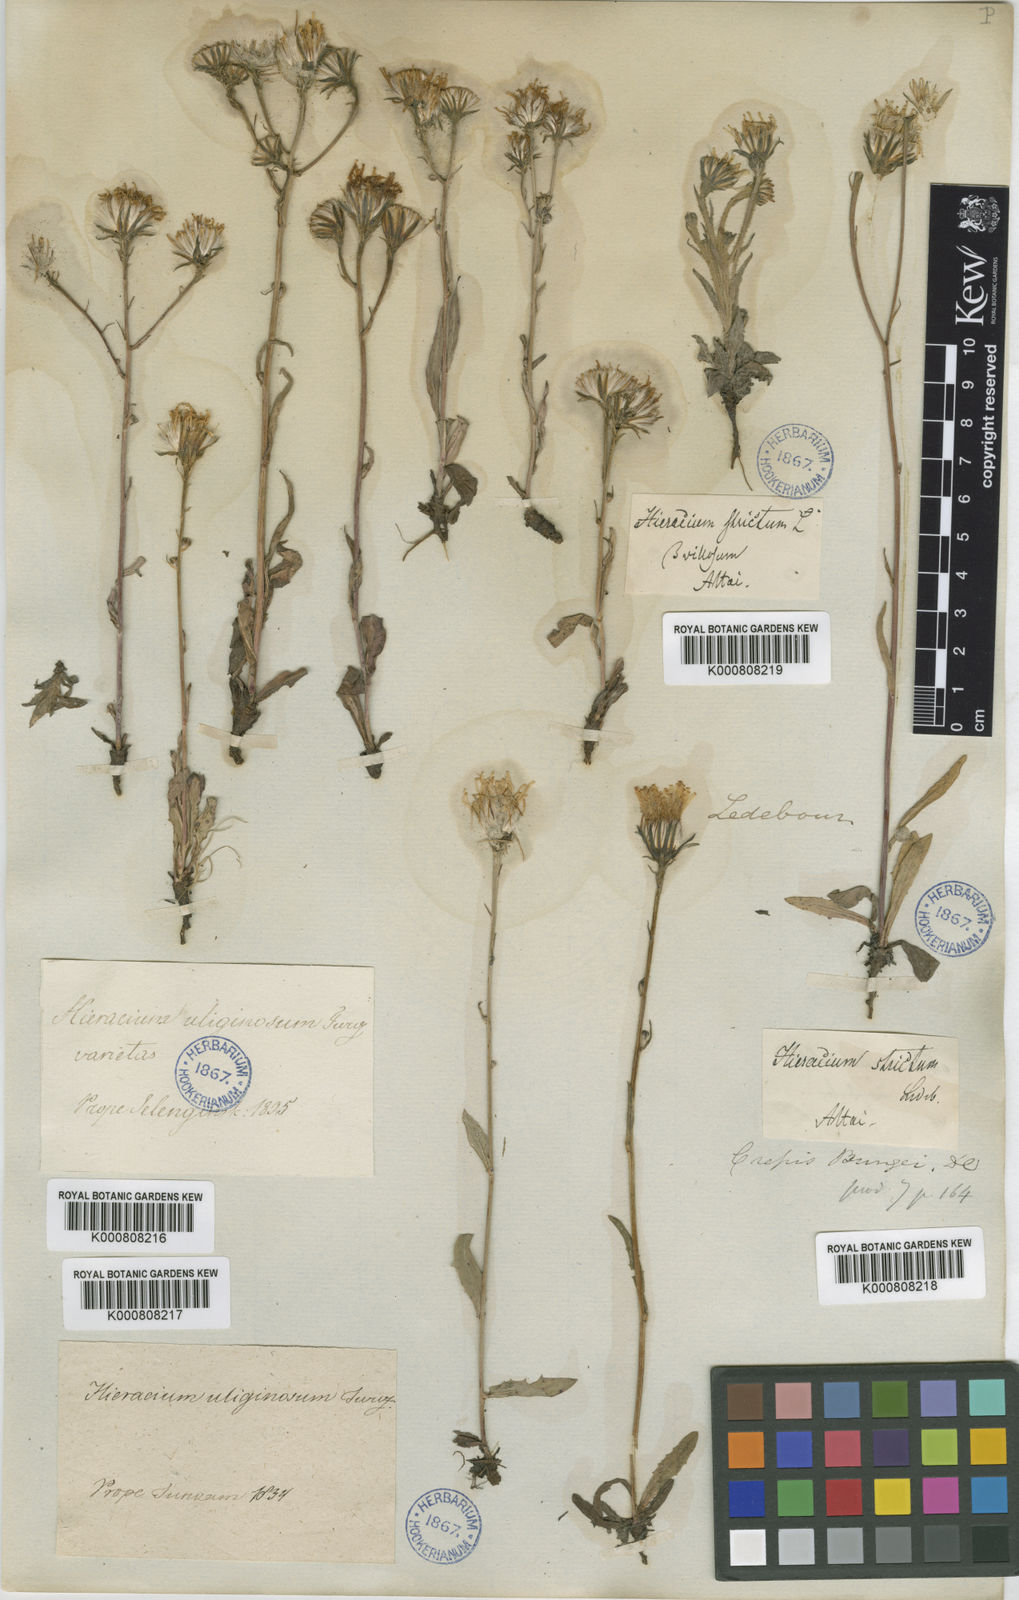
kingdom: Plantae
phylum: Tracheophyta
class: Magnoliopsida
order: Asterales
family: Asteraceae
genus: Crepis
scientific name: Crepis bungei
